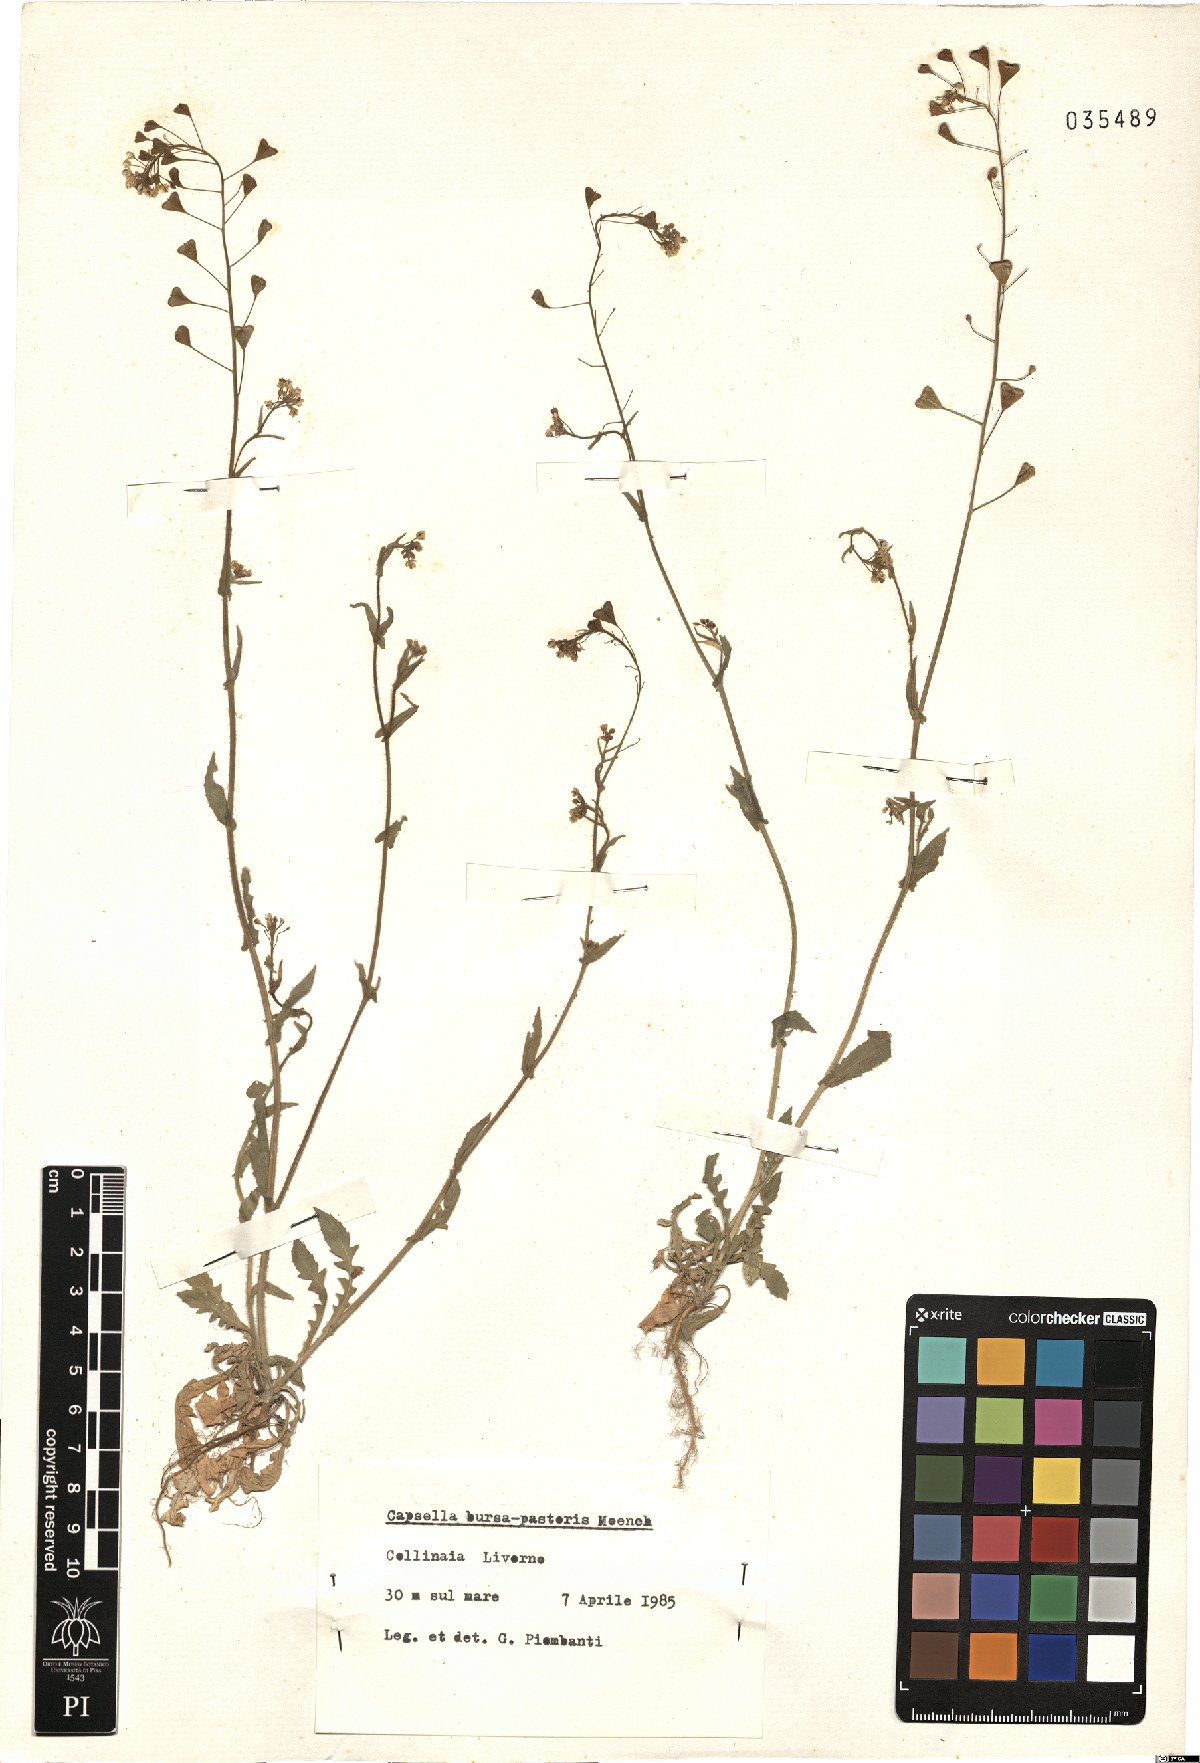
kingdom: Plantae
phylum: Tracheophyta
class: Magnoliopsida
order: Brassicales
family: Brassicaceae
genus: Capsella
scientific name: Capsella bursa-pastoris
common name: Shepherd's purse
